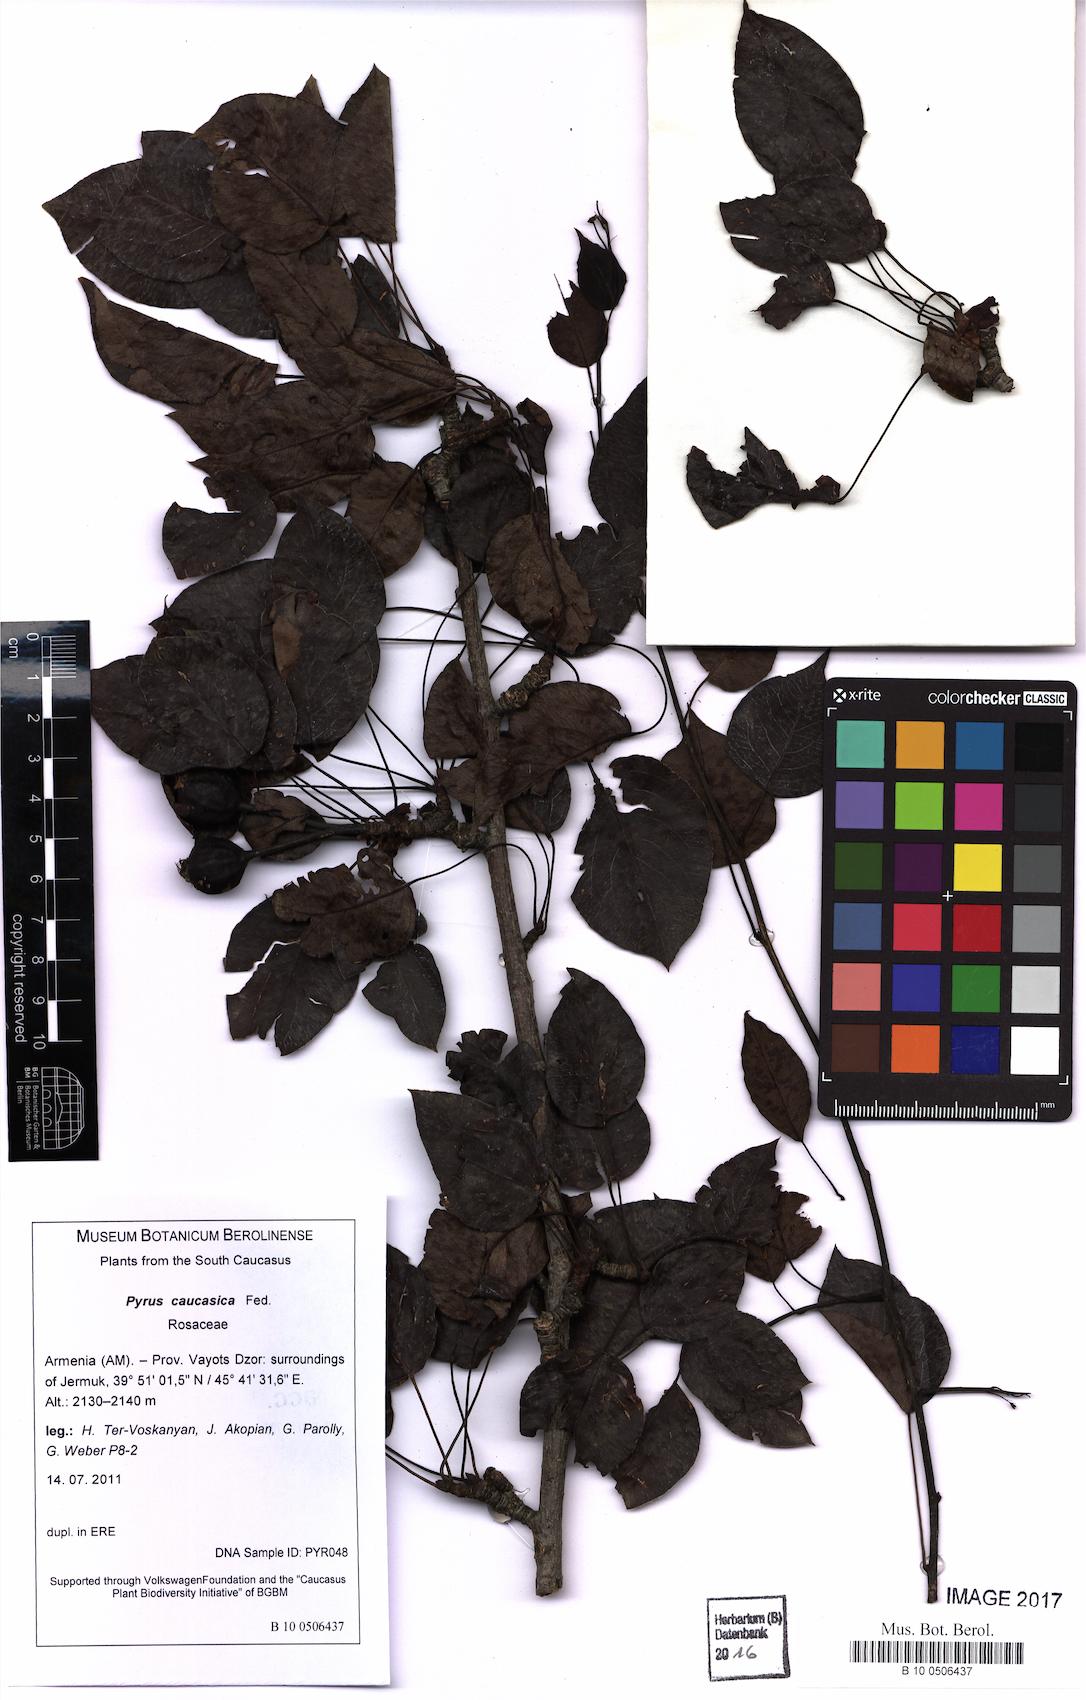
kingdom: Plantae
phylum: Tracheophyta
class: Magnoliopsida
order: Rosales
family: Rosaceae
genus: Pyrus
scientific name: Pyrus communis
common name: Pear
